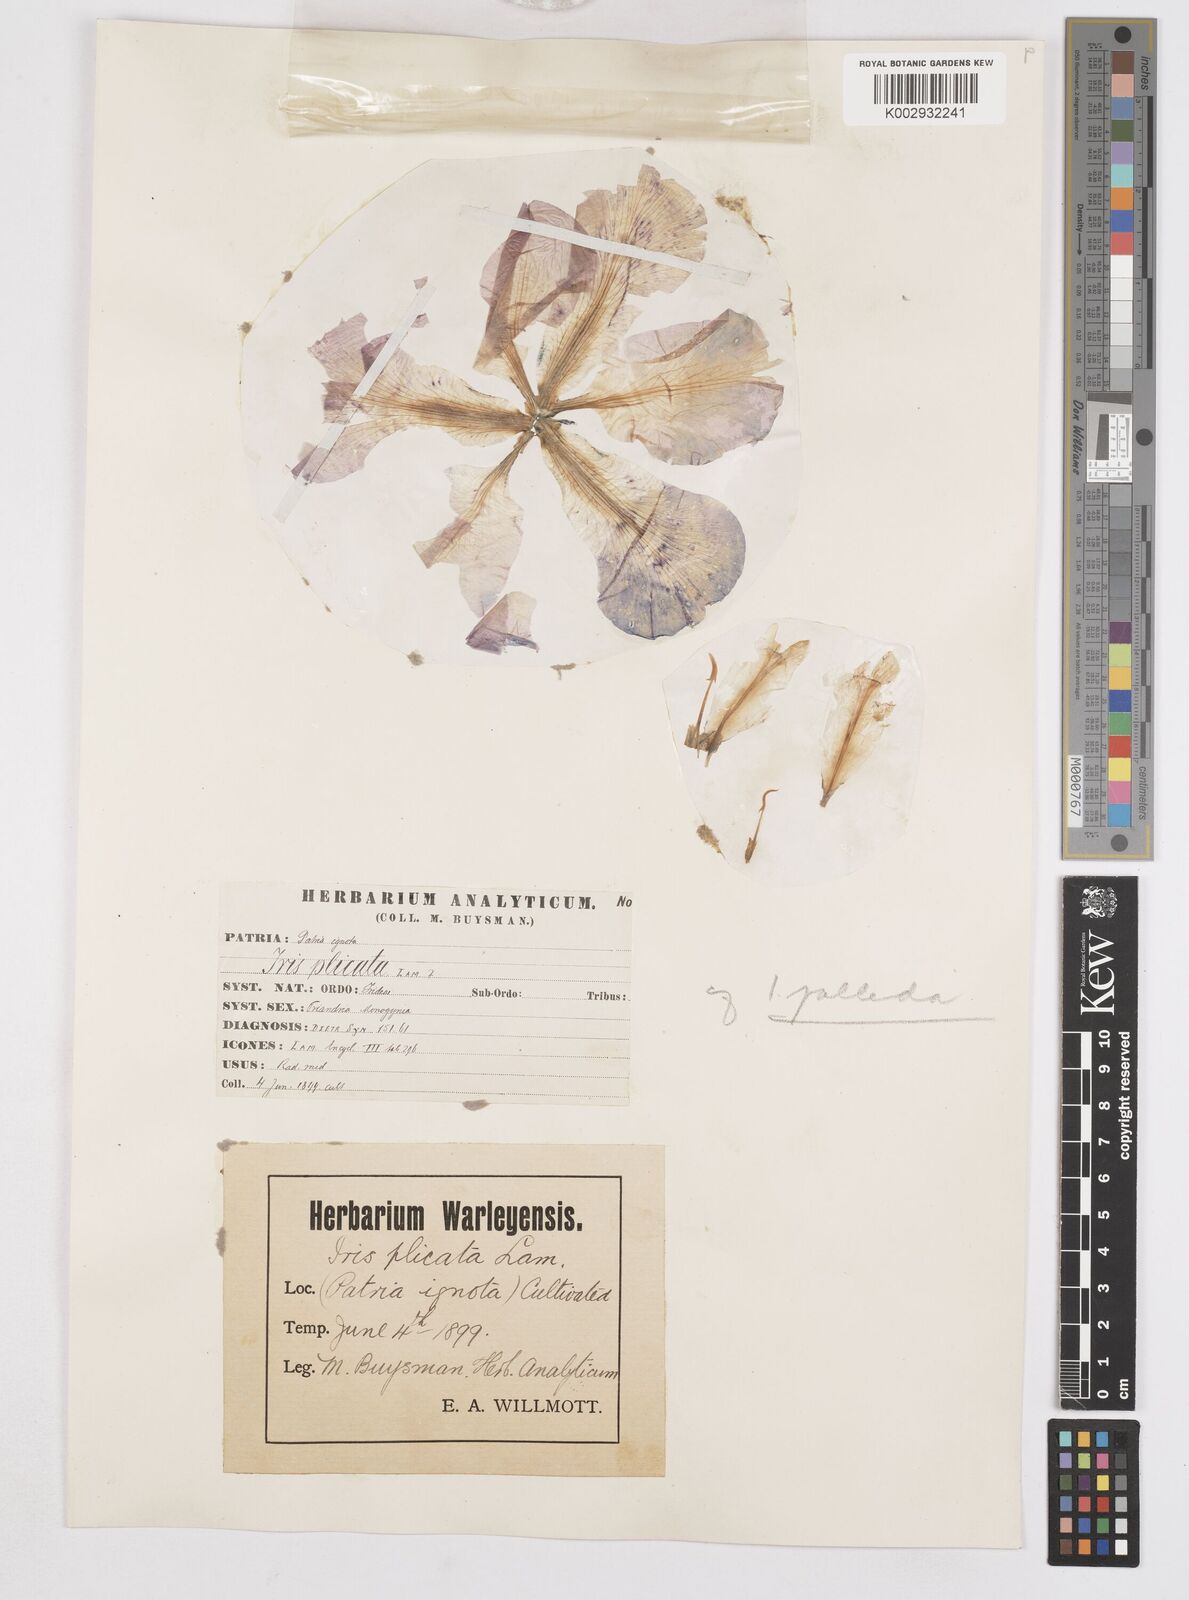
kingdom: Plantae
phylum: Tracheophyta
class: Liliopsida
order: Asparagales
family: Iridaceae
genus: Iris
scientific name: Iris germanica
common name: German iris
